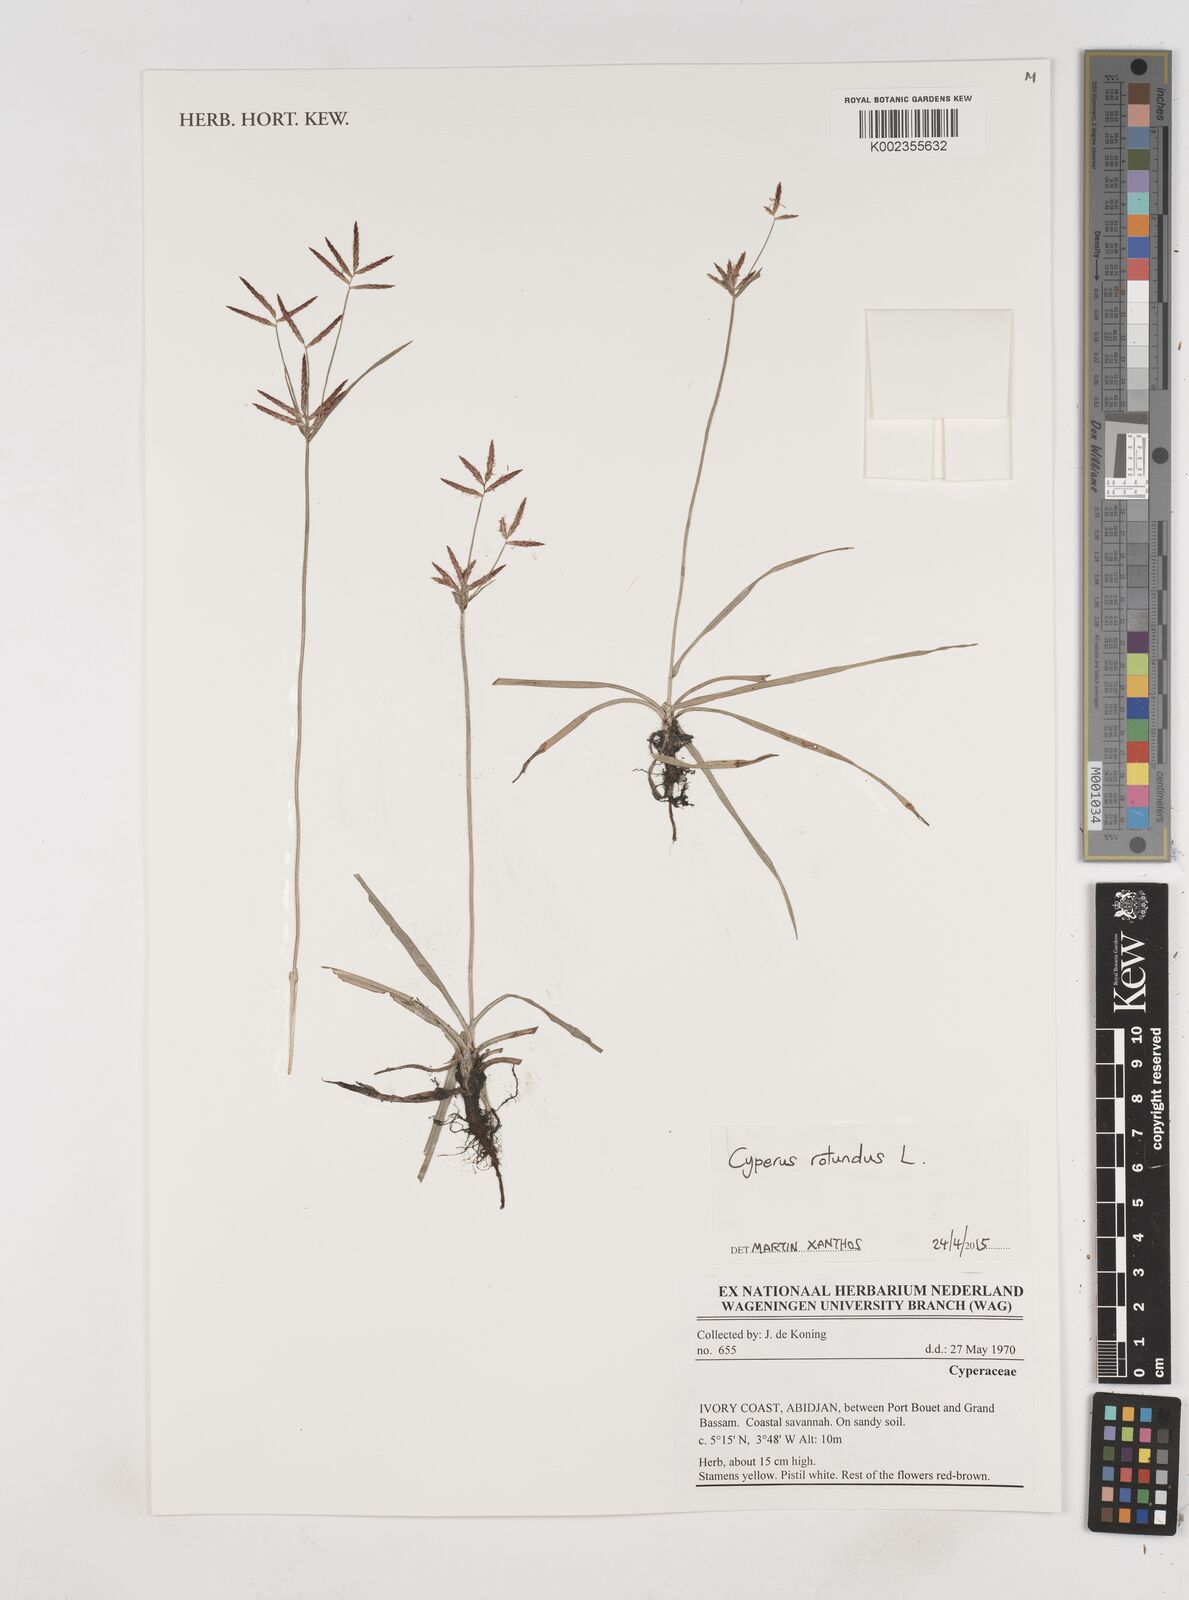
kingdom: Plantae
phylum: Tracheophyta
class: Liliopsida
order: Poales
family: Cyperaceae
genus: Cyperus
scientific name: Cyperus rotundus
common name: Nutgrass
